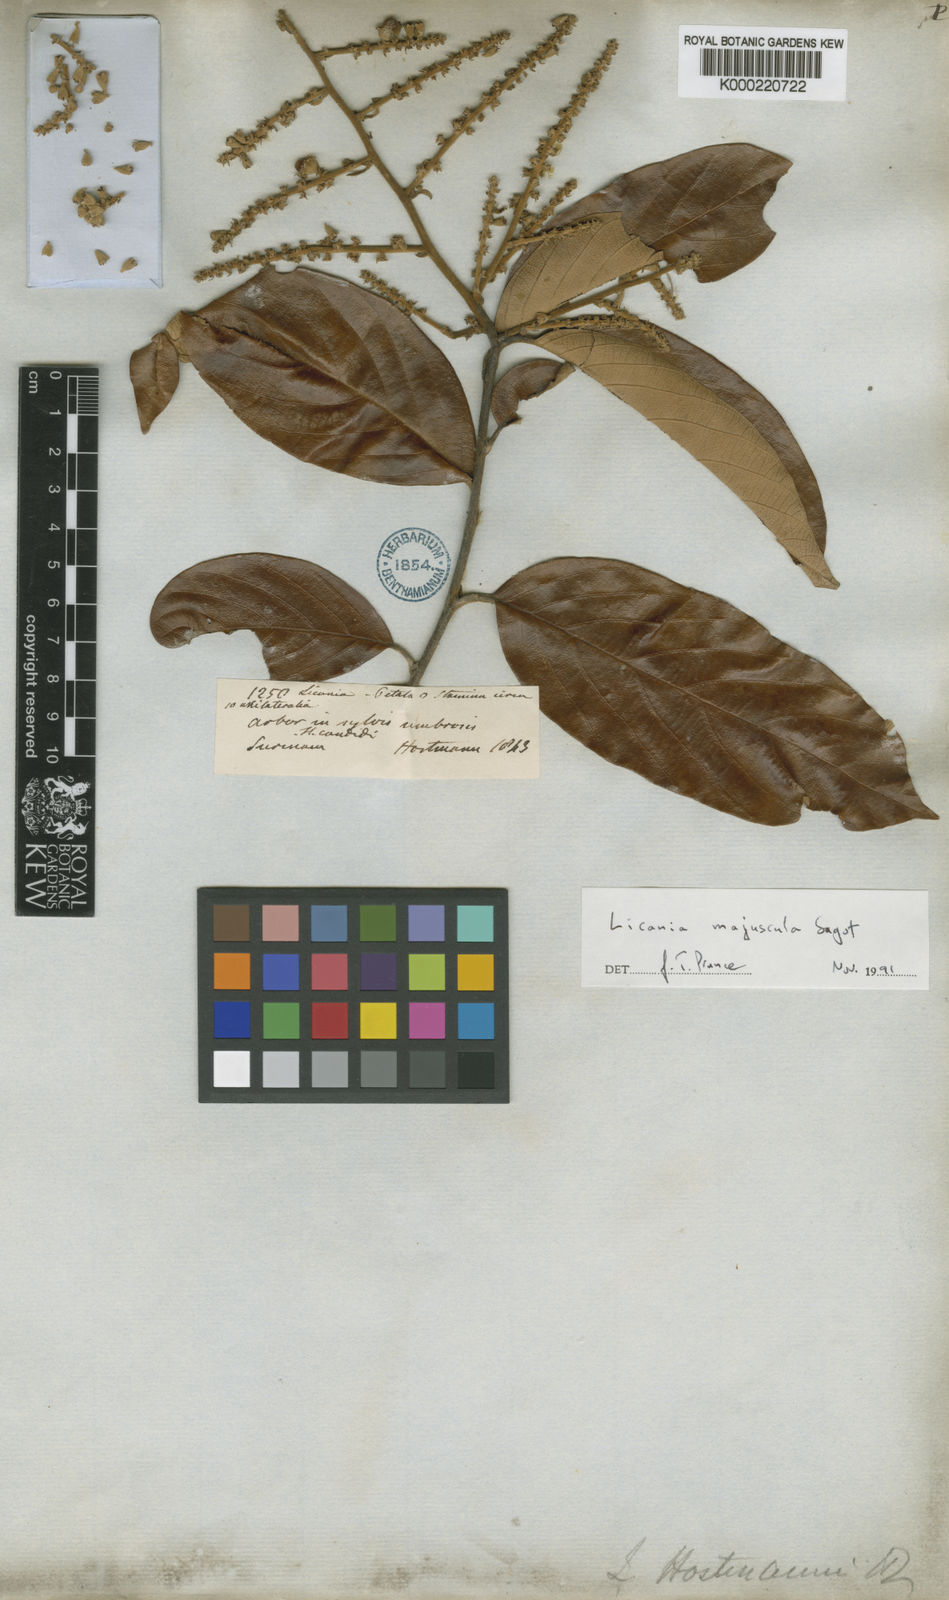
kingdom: Plantae
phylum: Tracheophyta
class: Magnoliopsida
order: Malpighiales
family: Chrysobalanaceae
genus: Licania
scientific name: Licania majuscula
